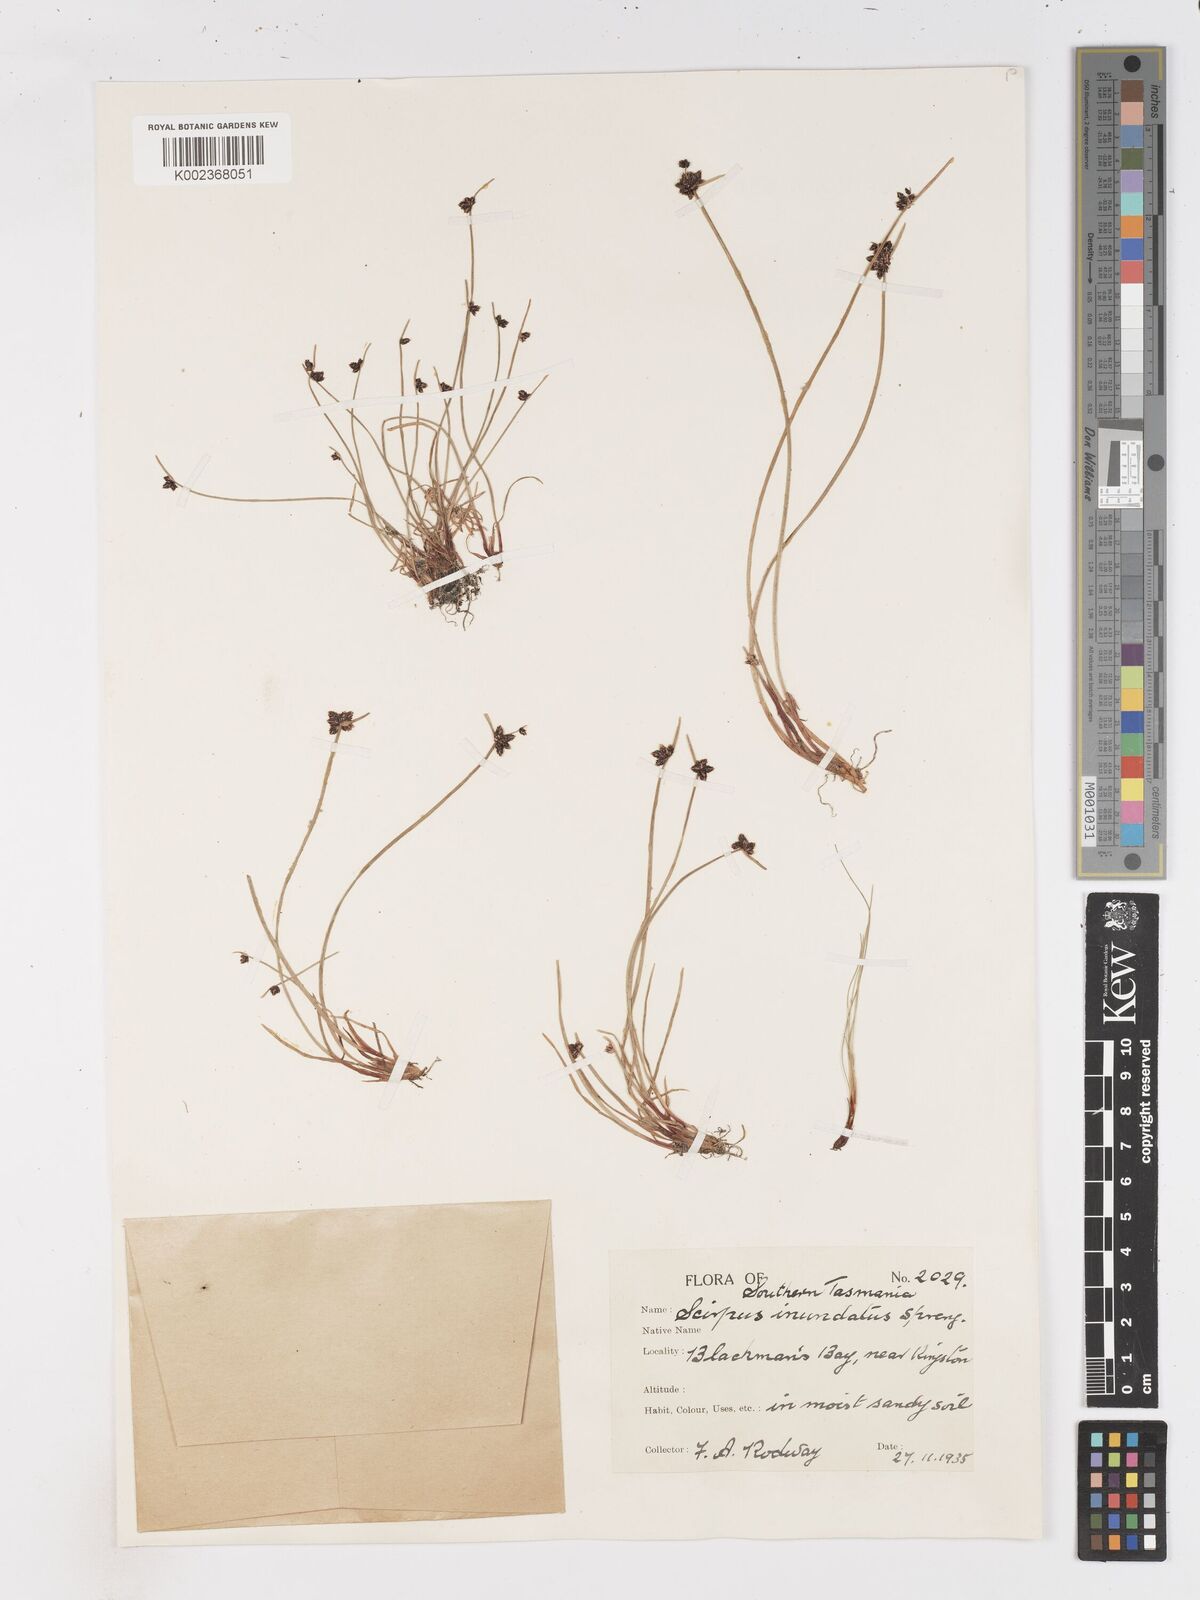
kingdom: Plantae
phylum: Tracheophyta
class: Liliopsida
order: Poales
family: Cyperaceae
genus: Isolepis
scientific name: Isolepis inundata
